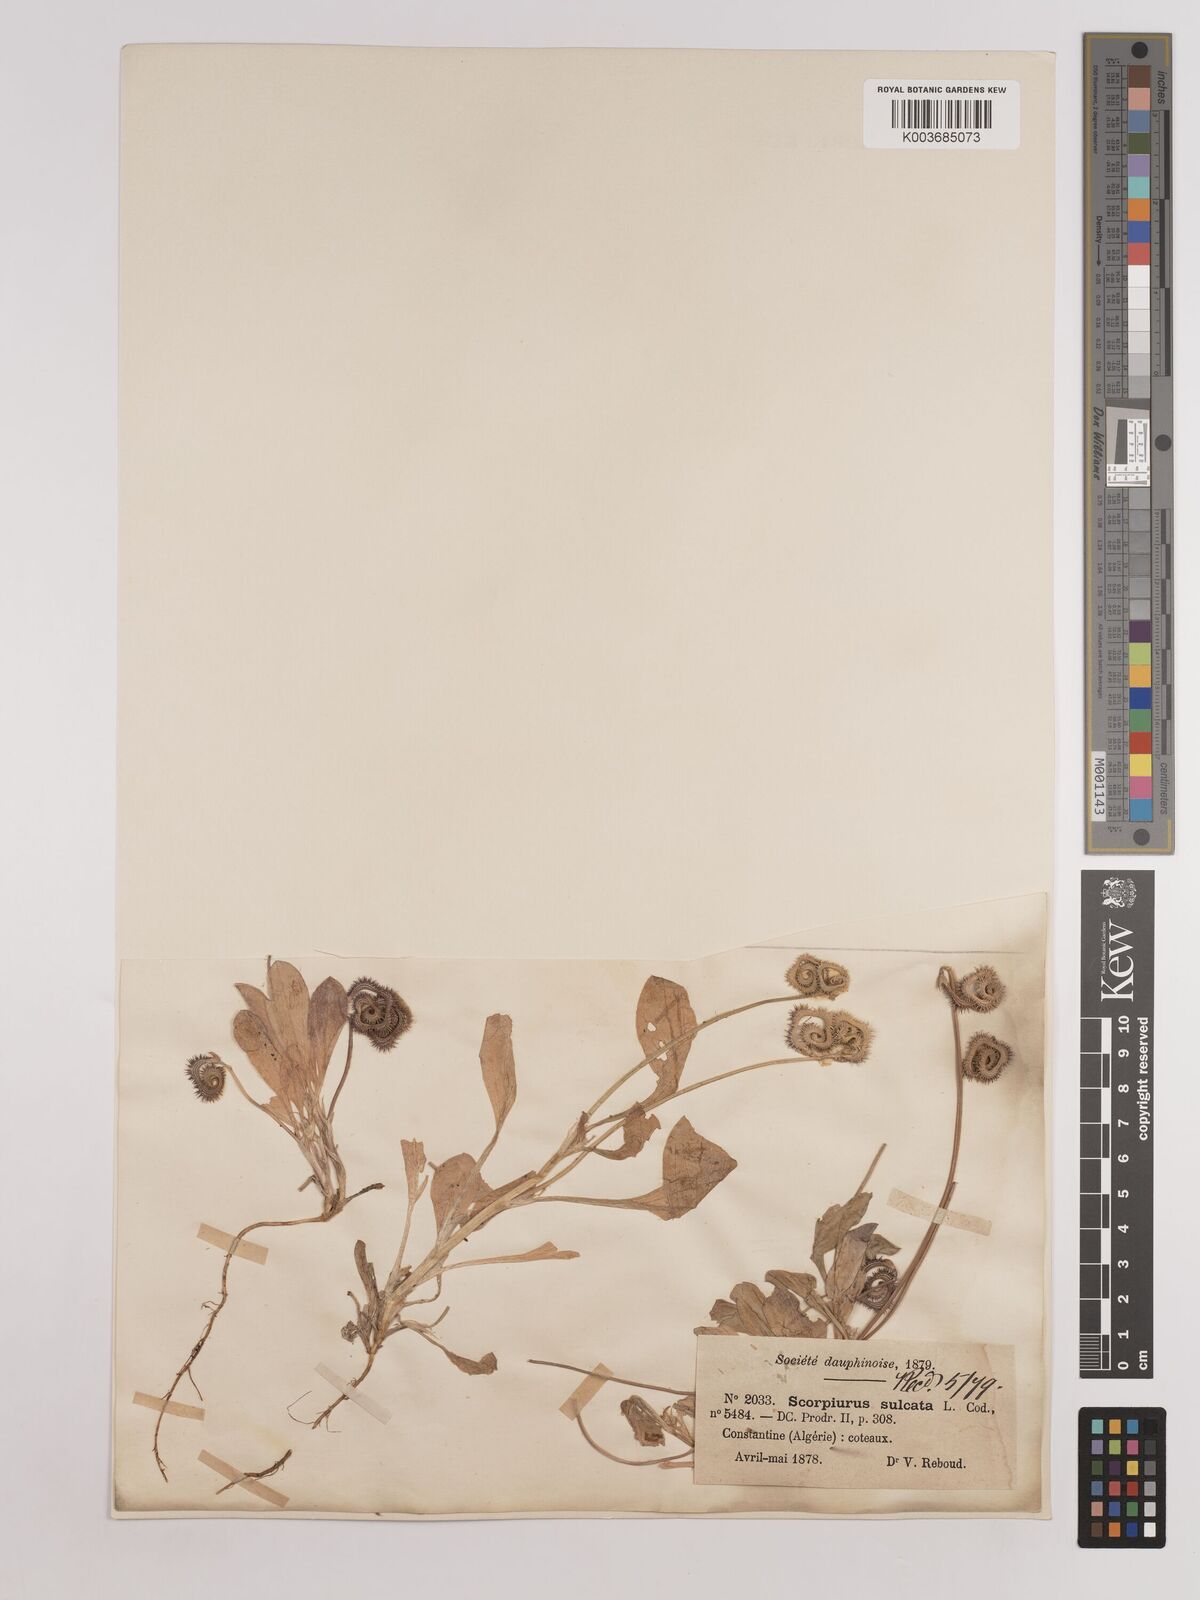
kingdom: Plantae
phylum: Tracheophyta
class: Magnoliopsida
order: Fabales
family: Fabaceae
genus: Scorpiurus
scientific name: Scorpiurus muricatus
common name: Caterpillar-plant
